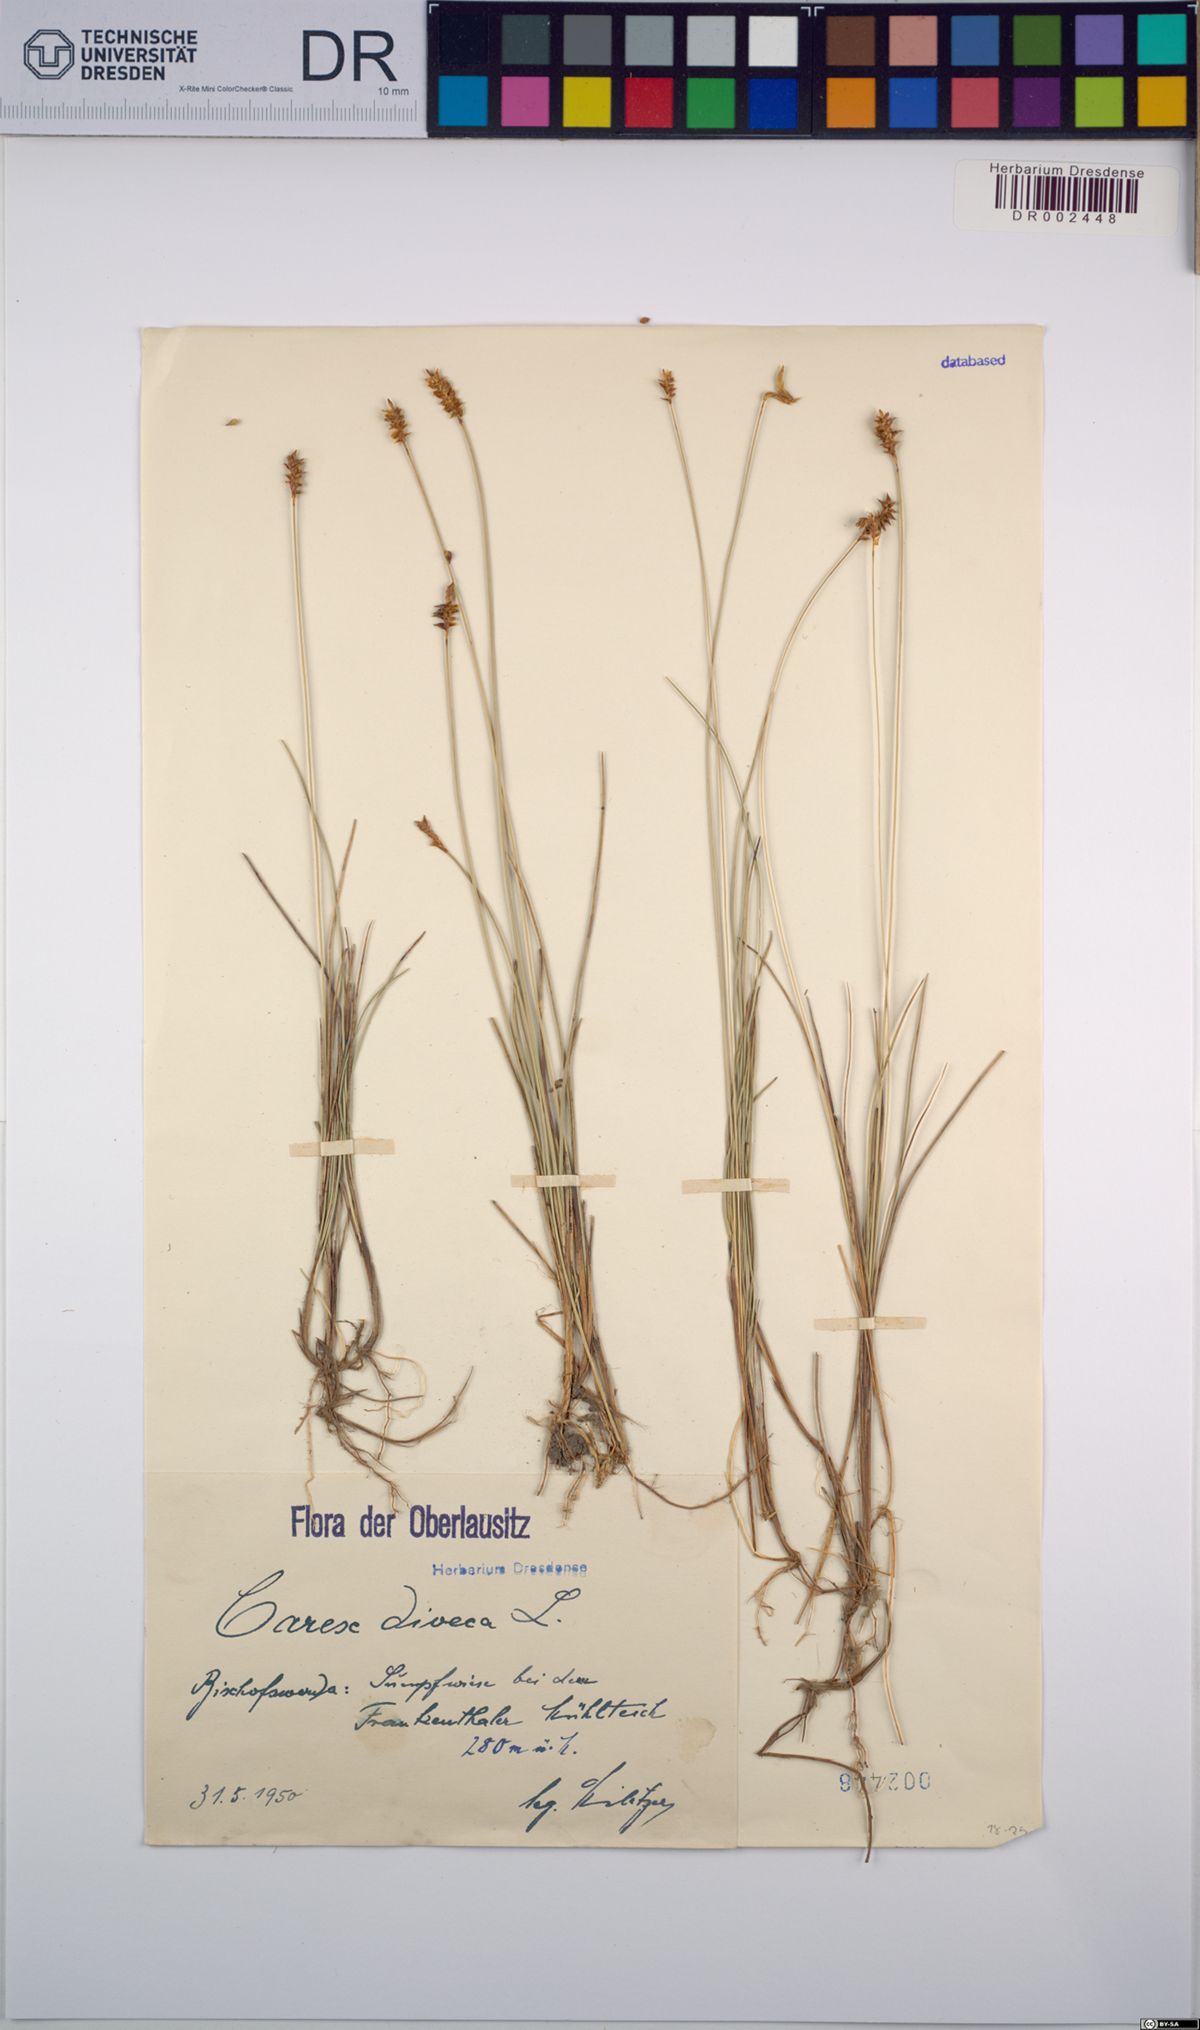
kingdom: Plantae
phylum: Tracheophyta
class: Liliopsida
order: Poales
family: Cyperaceae
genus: Carex
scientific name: Carex dioica
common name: Dioecious sedge
